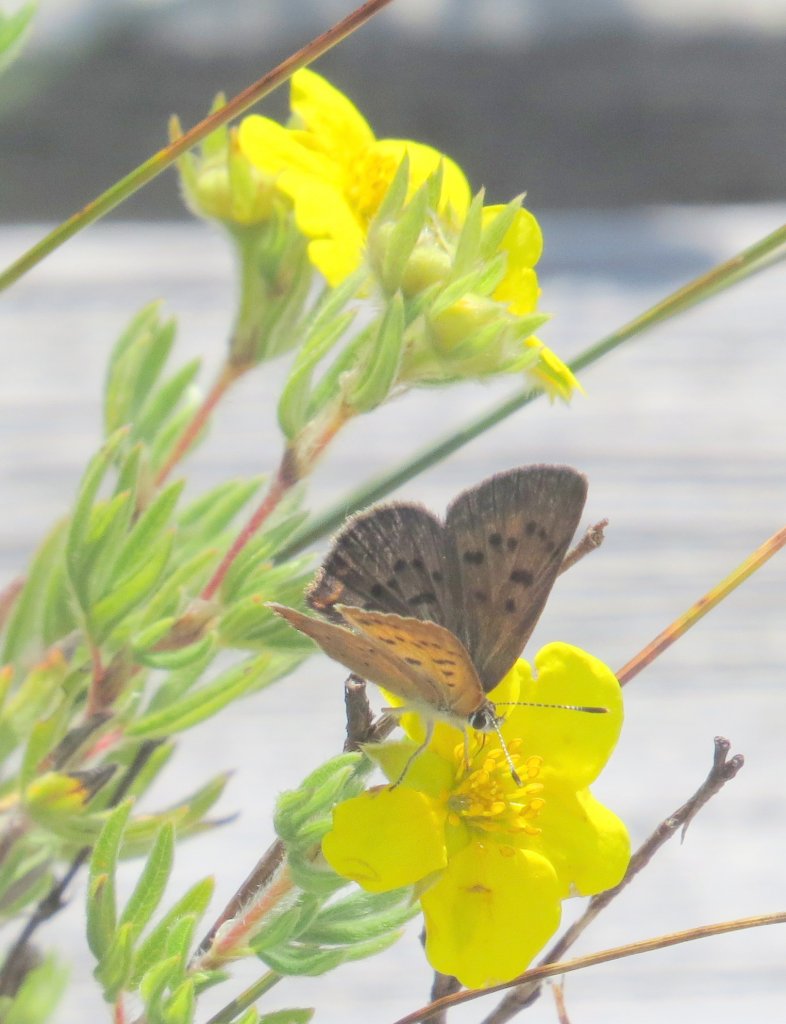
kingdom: Animalia
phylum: Arthropoda
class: Insecta
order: Lepidoptera
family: Lycaenidae
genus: Epidemia
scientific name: Epidemia dorcas
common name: Dorcas Copper
